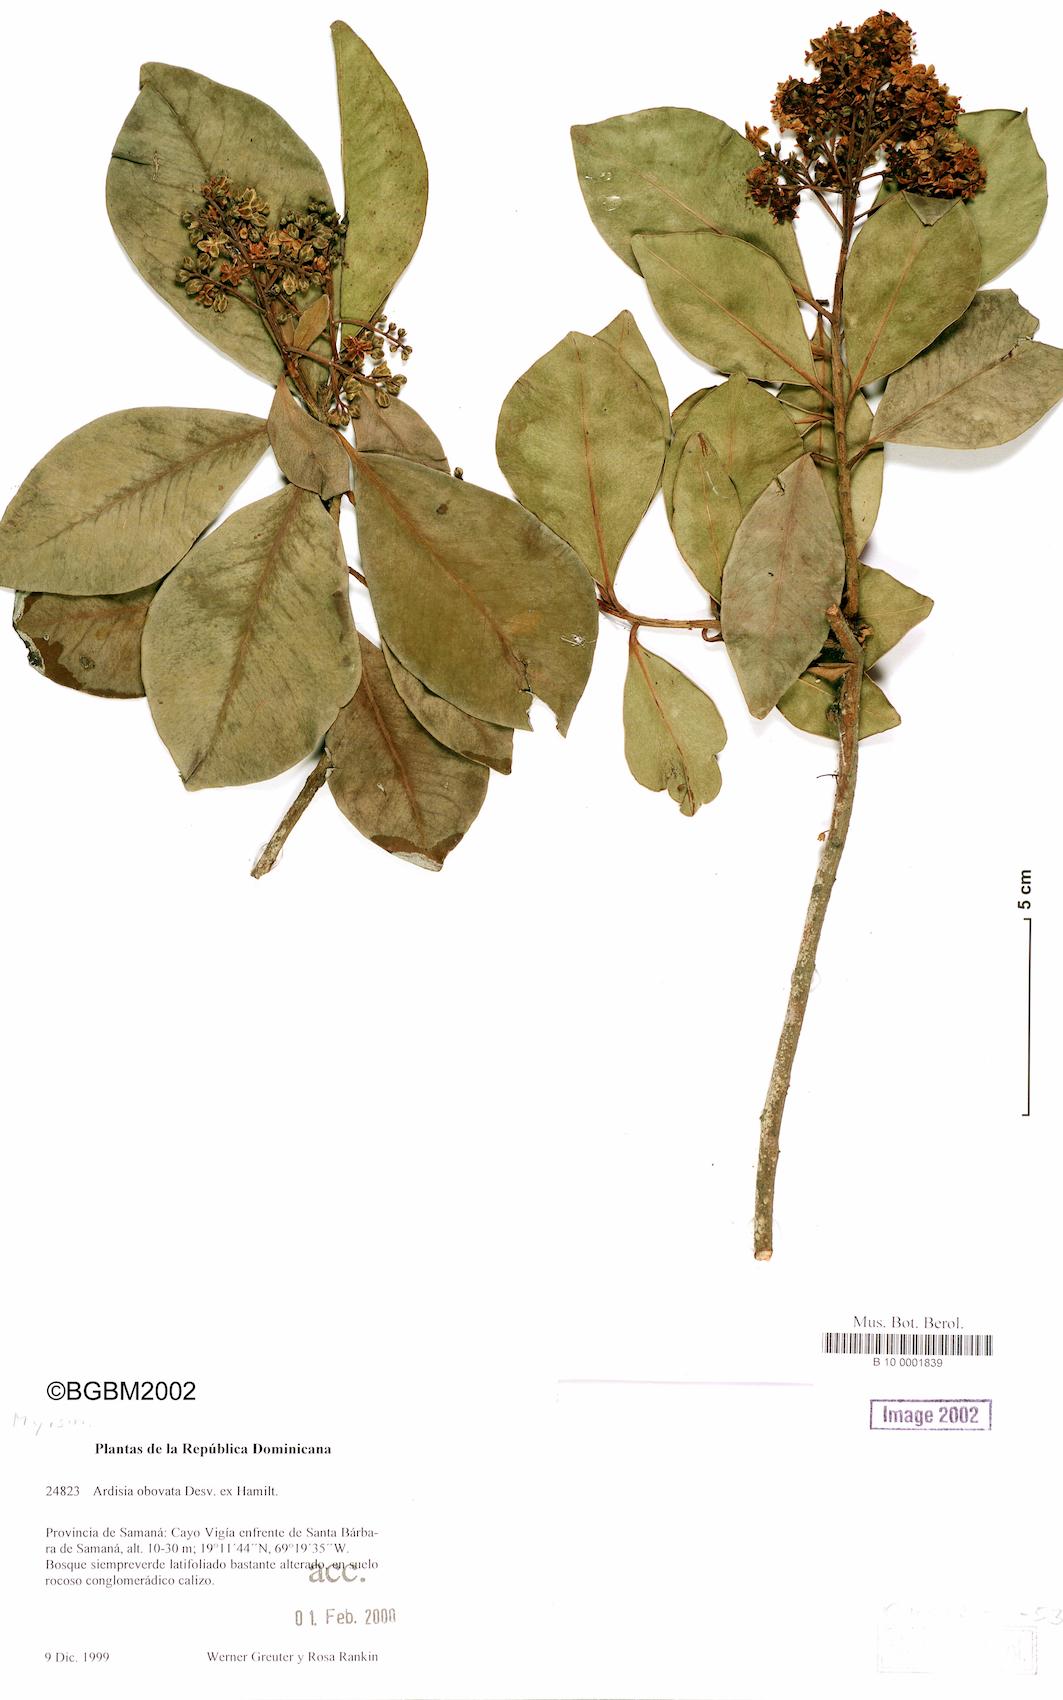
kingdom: Plantae
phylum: Tracheophyta
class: Magnoliopsida
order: Ericales
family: Primulaceae
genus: Ardisia
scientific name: Ardisia obovata
